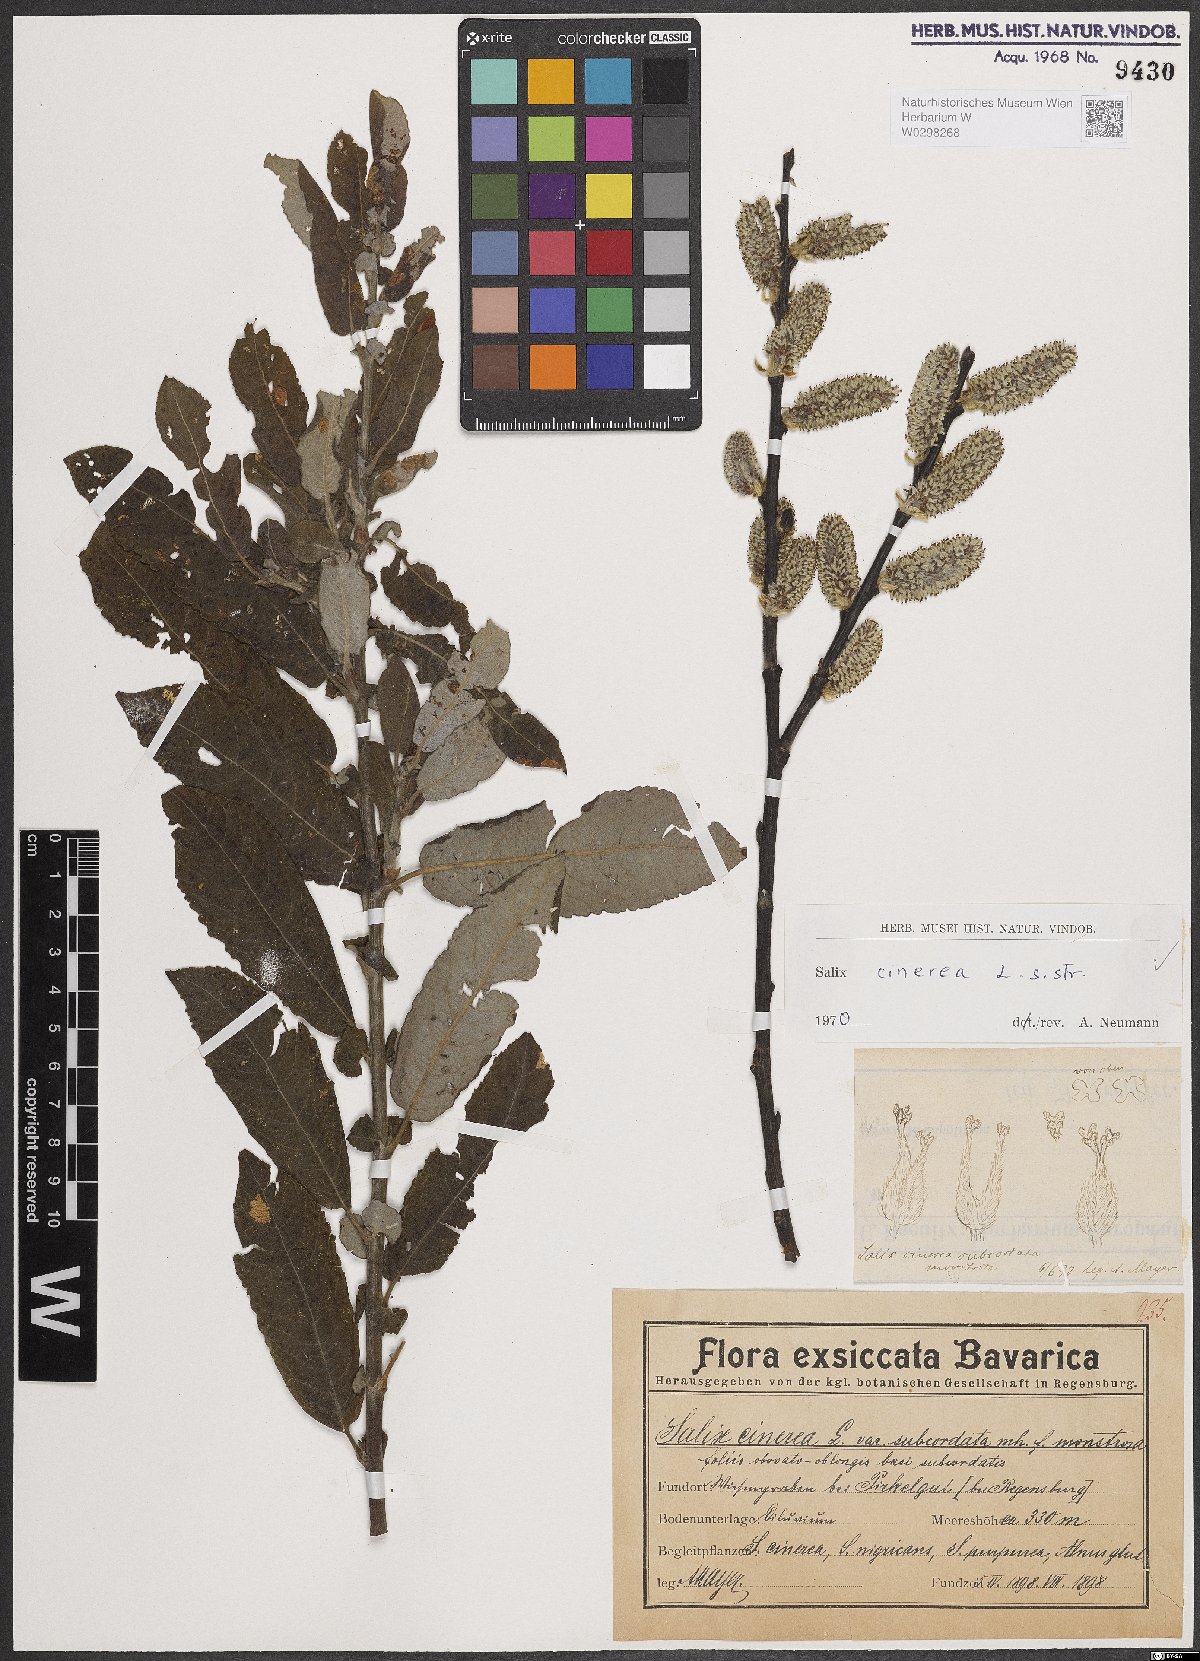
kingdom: Plantae
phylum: Tracheophyta
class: Magnoliopsida
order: Malpighiales
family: Salicaceae
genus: Salix
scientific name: Salix cinerea
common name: Common sallow
